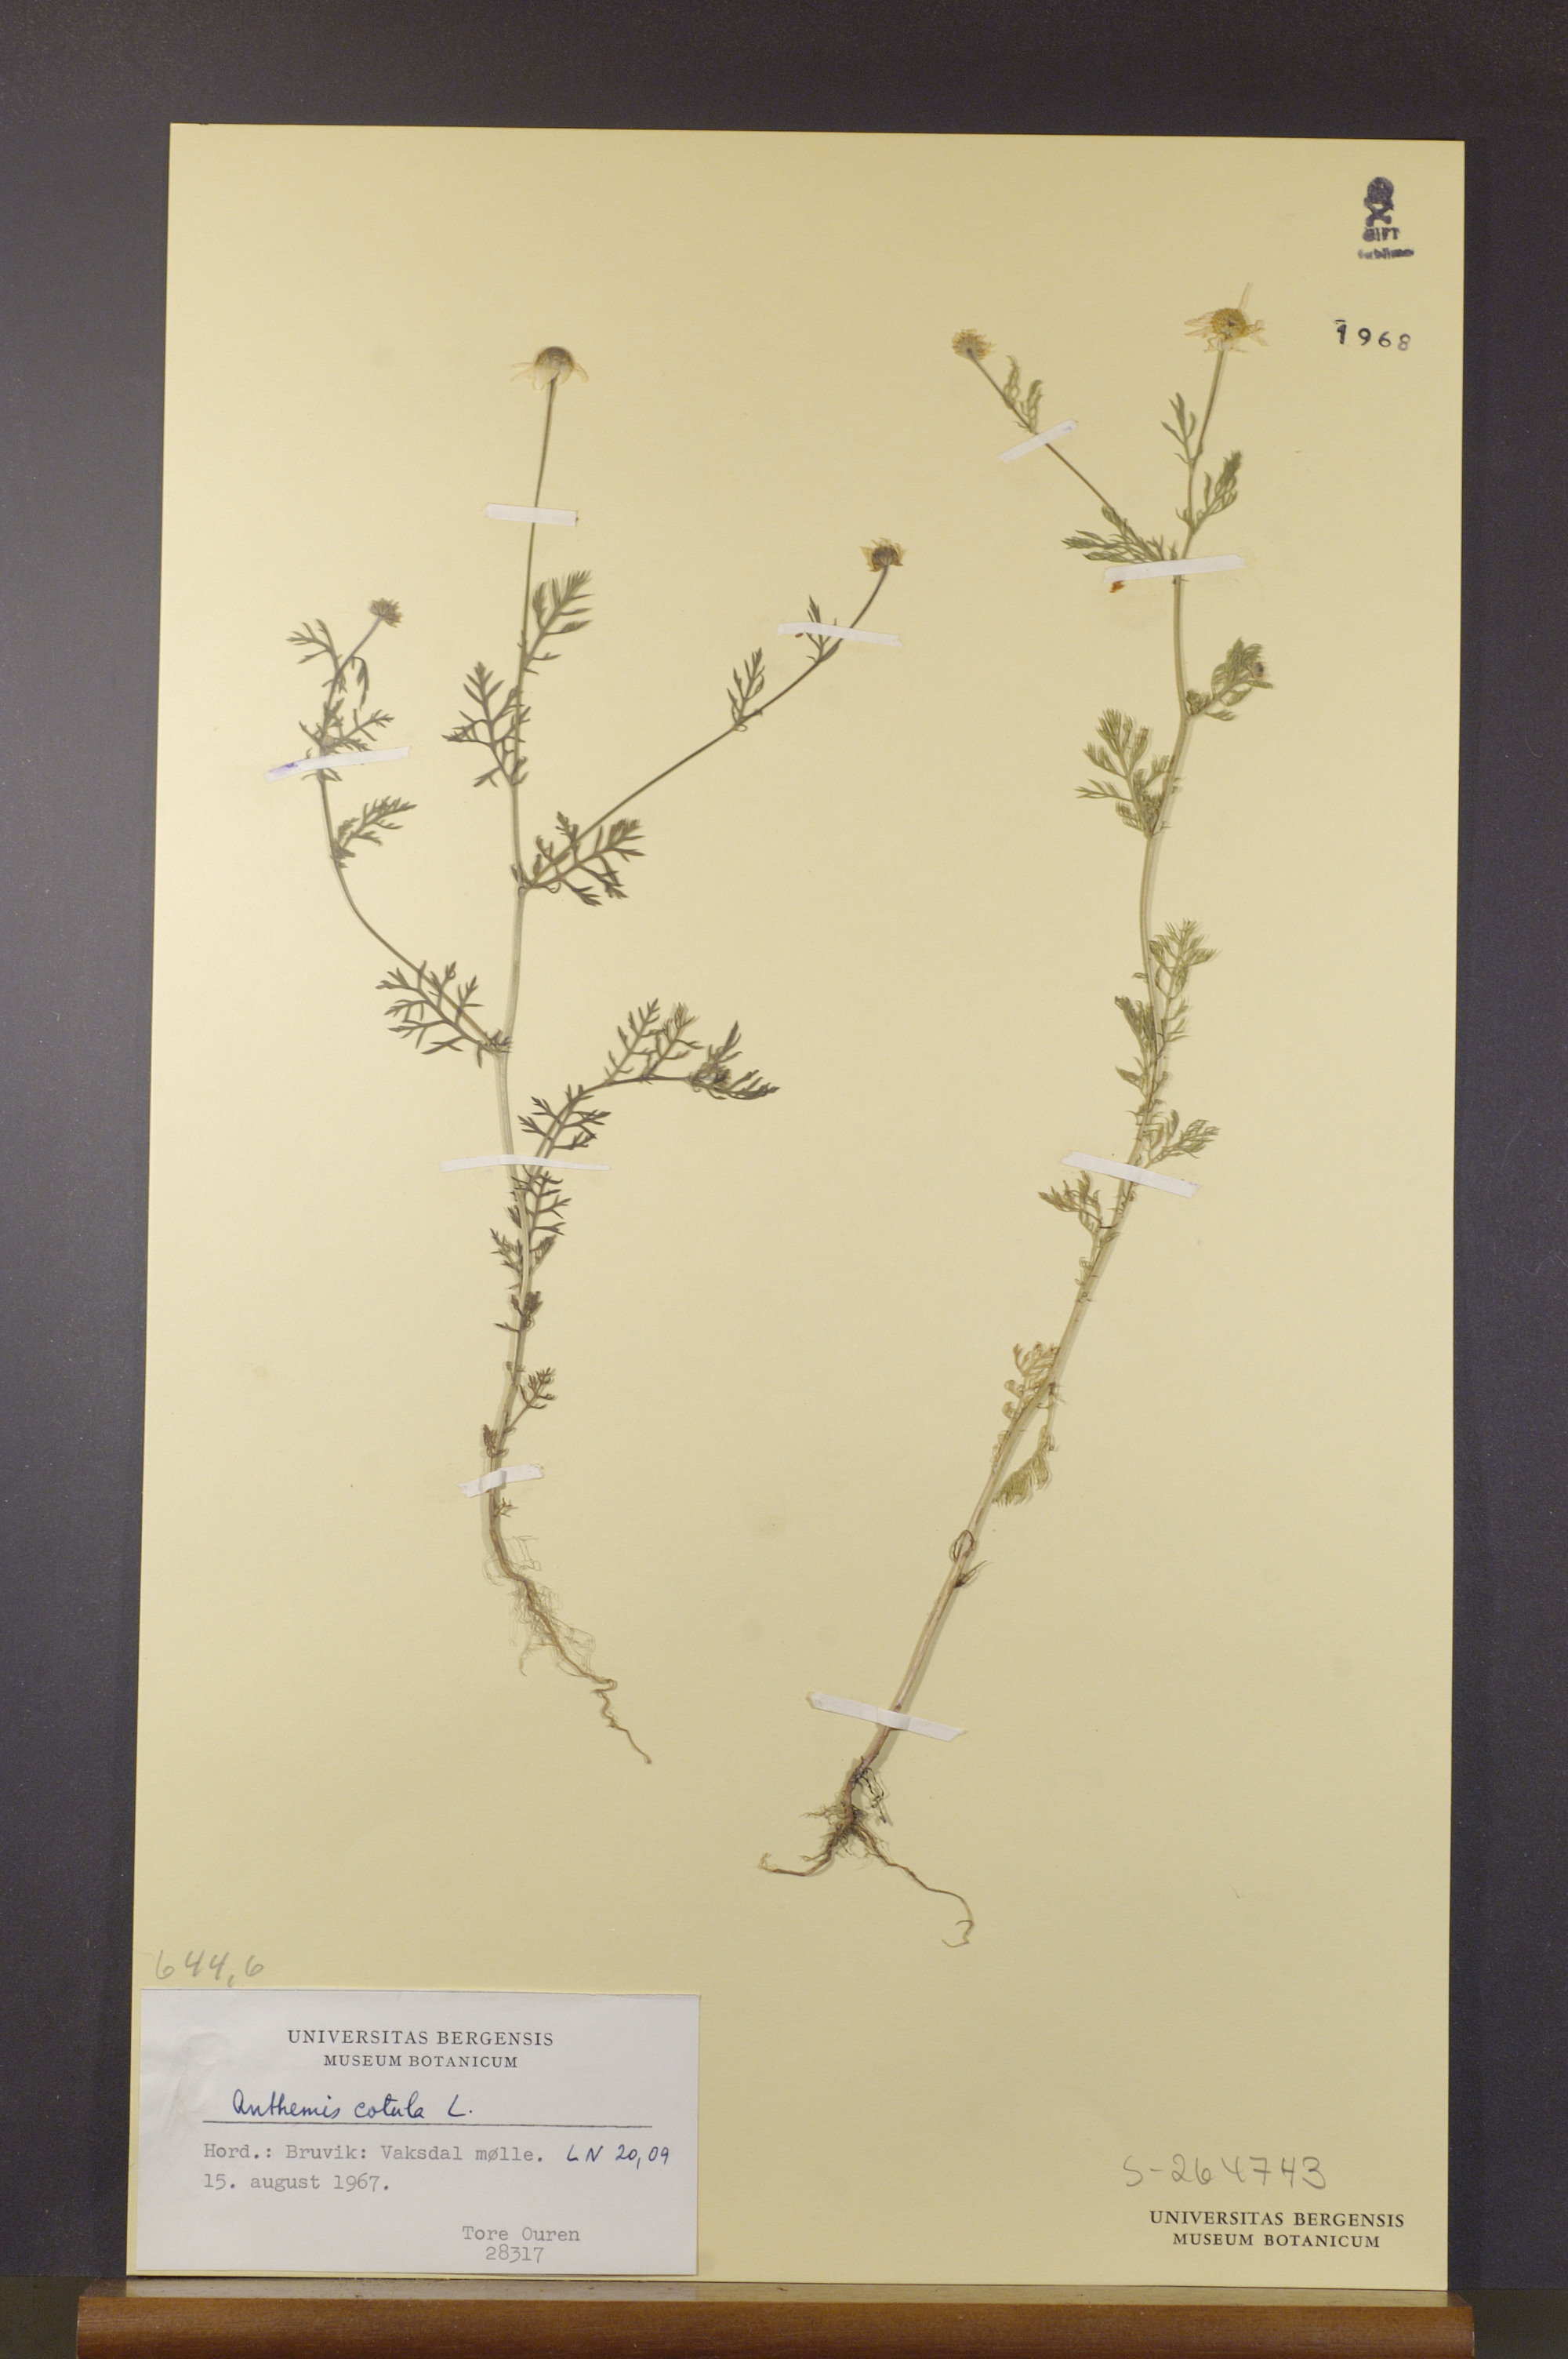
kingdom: Plantae
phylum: Tracheophyta
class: Magnoliopsida
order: Asterales
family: Asteraceae
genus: Anthemis
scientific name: Anthemis cotula
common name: Stinking chamomile
